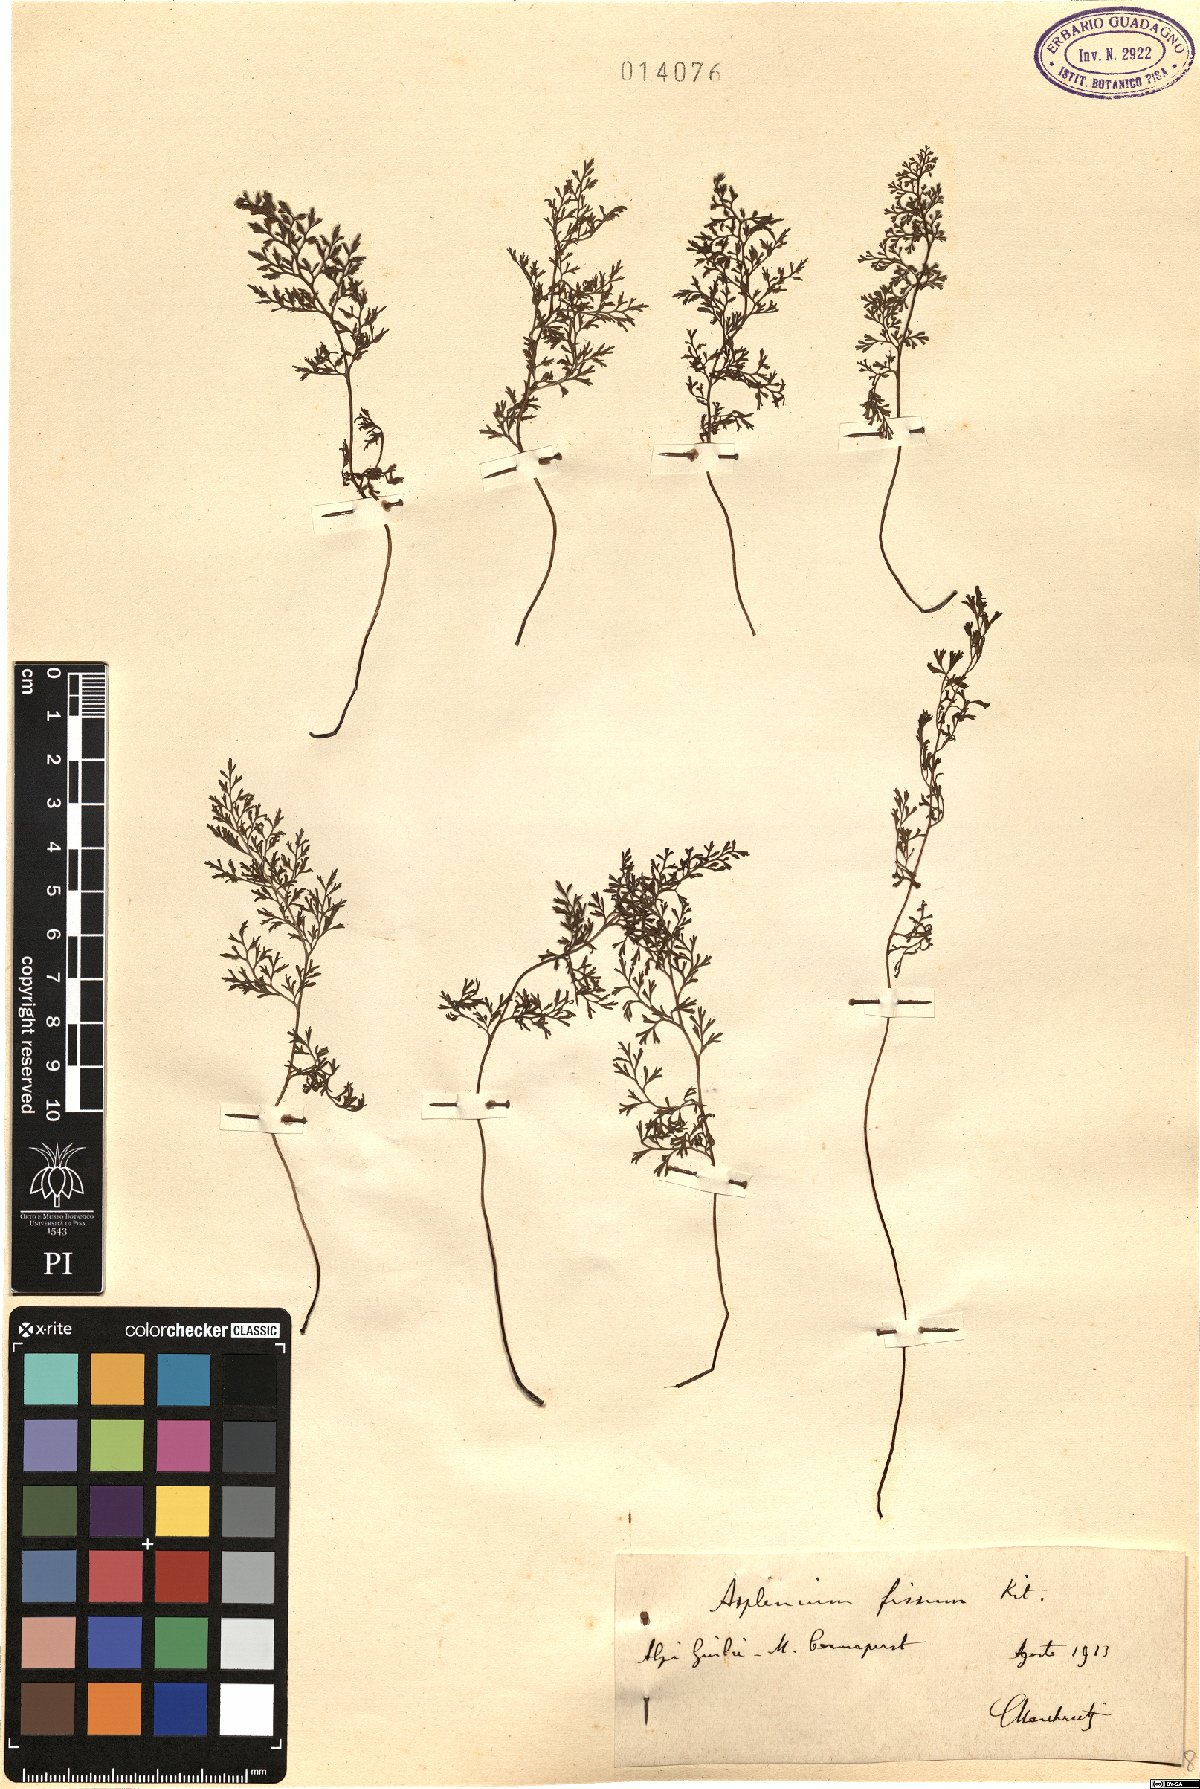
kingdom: Plantae
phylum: Tracheophyta
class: Polypodiopsida
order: Polypodiales
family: Aspleniaceae
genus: Asplenium
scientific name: Asplenium fissum
